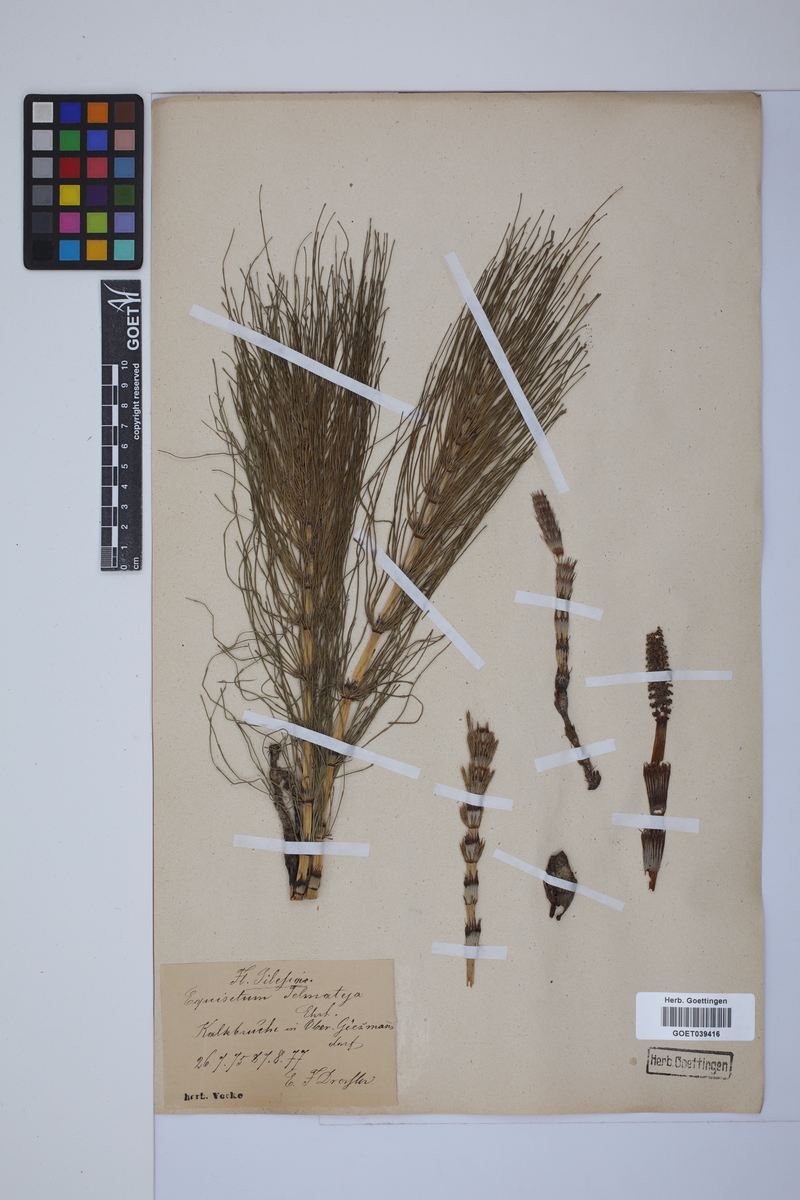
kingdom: Plantae
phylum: Tracheophyta
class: Polypodiopsida
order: Equisetales
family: Equisetaceae
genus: Equisetum
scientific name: Equisetum telmateia
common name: Great horsetail
